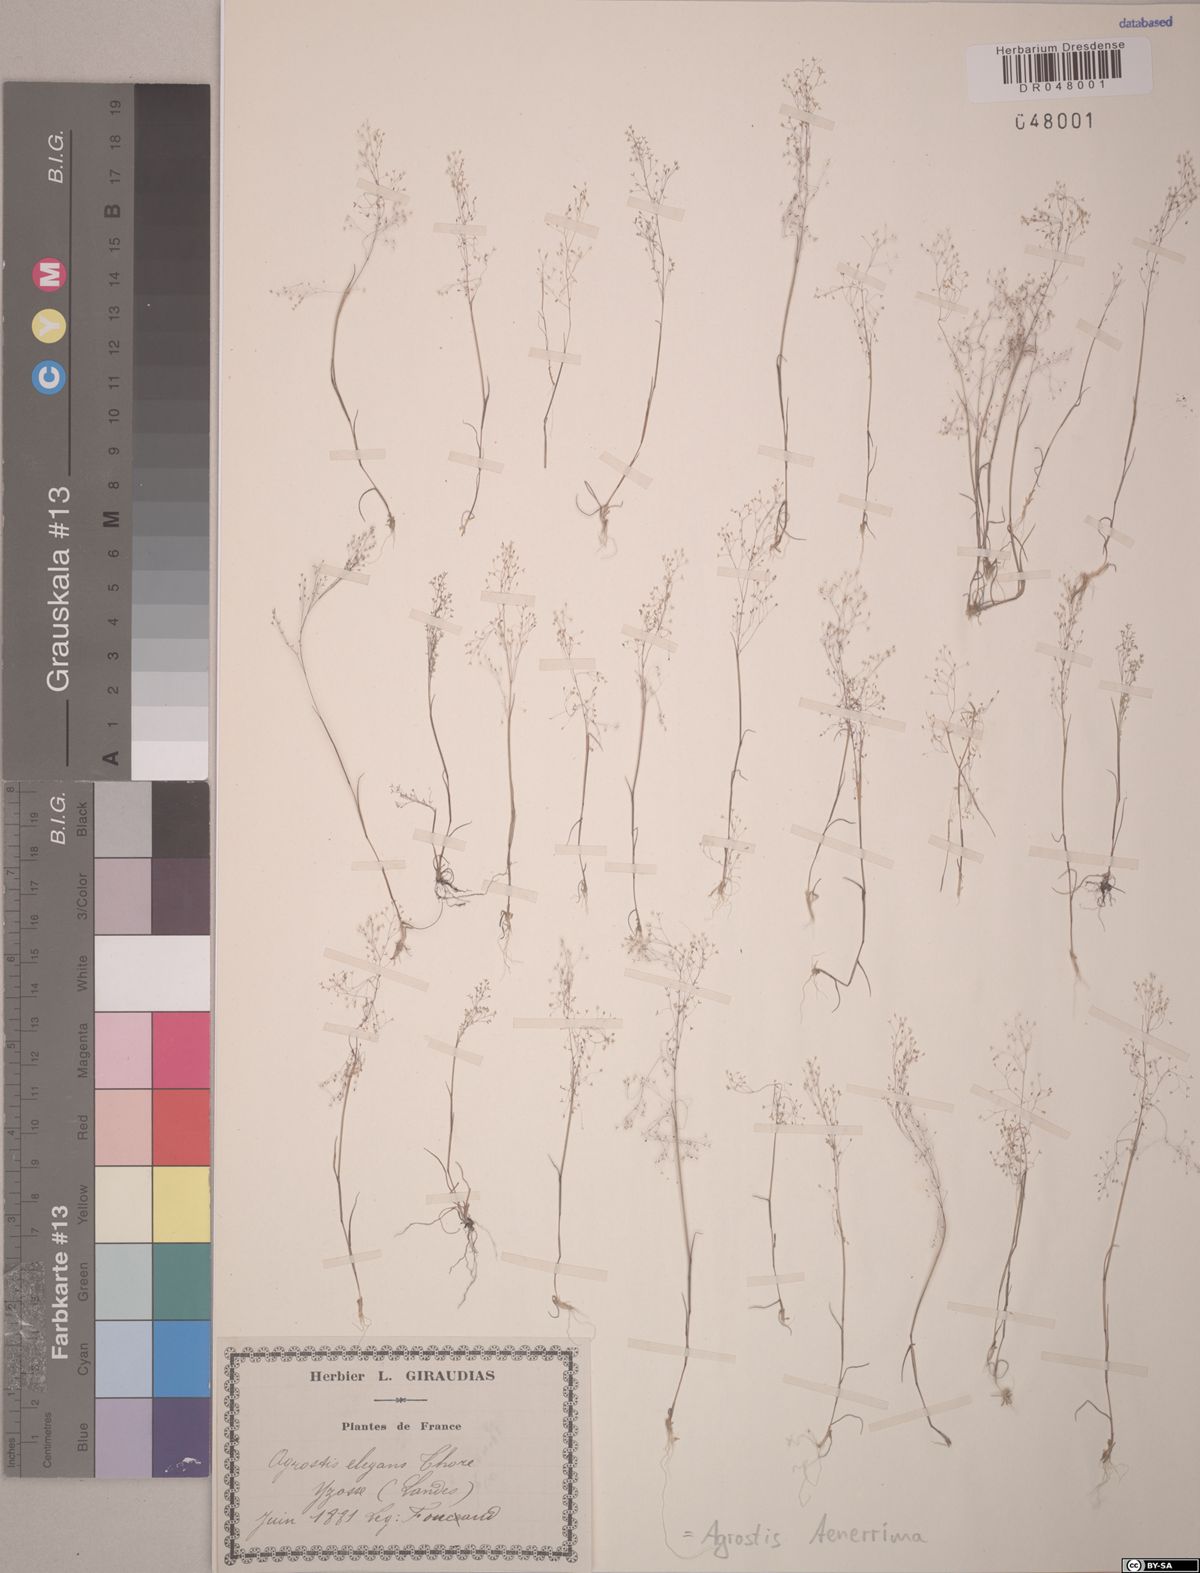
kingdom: Plantae
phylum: Tracheophyta
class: Liliopsida
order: Poales
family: Poaceae
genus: Agrostis
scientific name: Agrostis tenerrima
